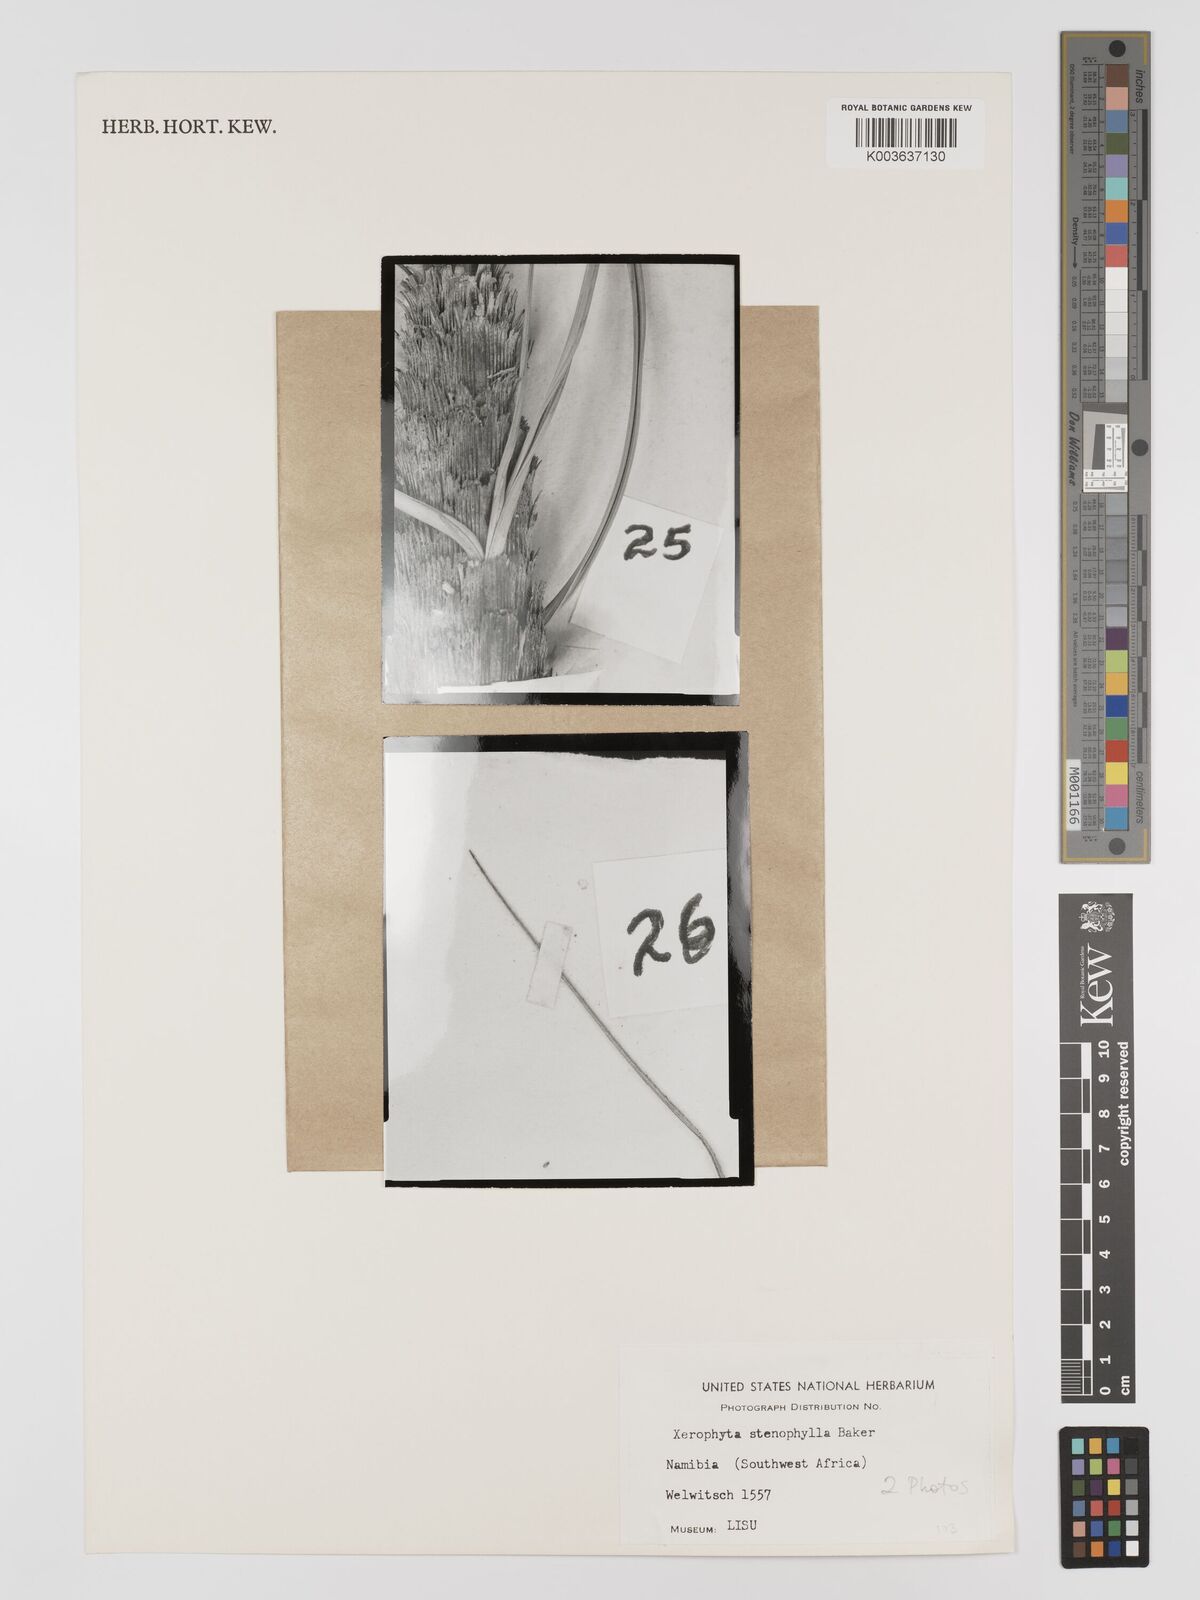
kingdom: Plantae
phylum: Tracheophyta
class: Liliopsida
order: Pandanales
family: Velloziaceae
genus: Xerophyta
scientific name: Xerophyta stenophylla
